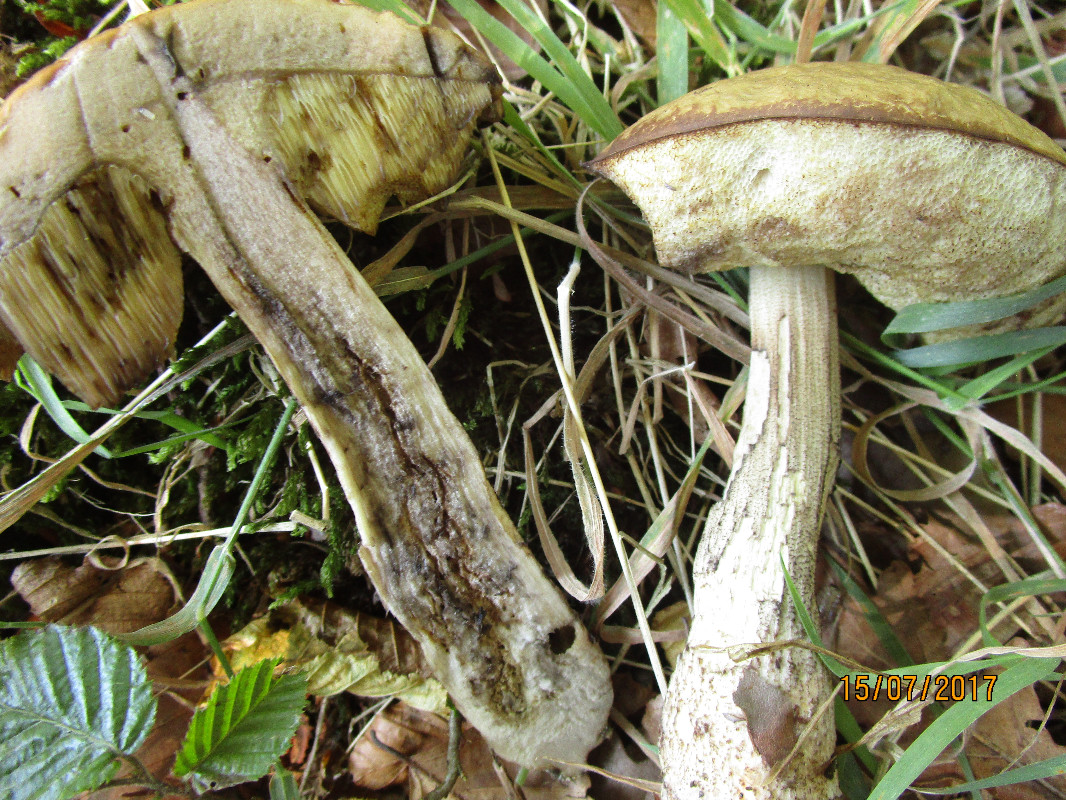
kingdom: Fungi
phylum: Basidiomycota
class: Agaricomycetes
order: Boletales
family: Boletaceae
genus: Leccinellum
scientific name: Leccinellum pseudoscabrum
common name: avnbøg-skælrørhat
